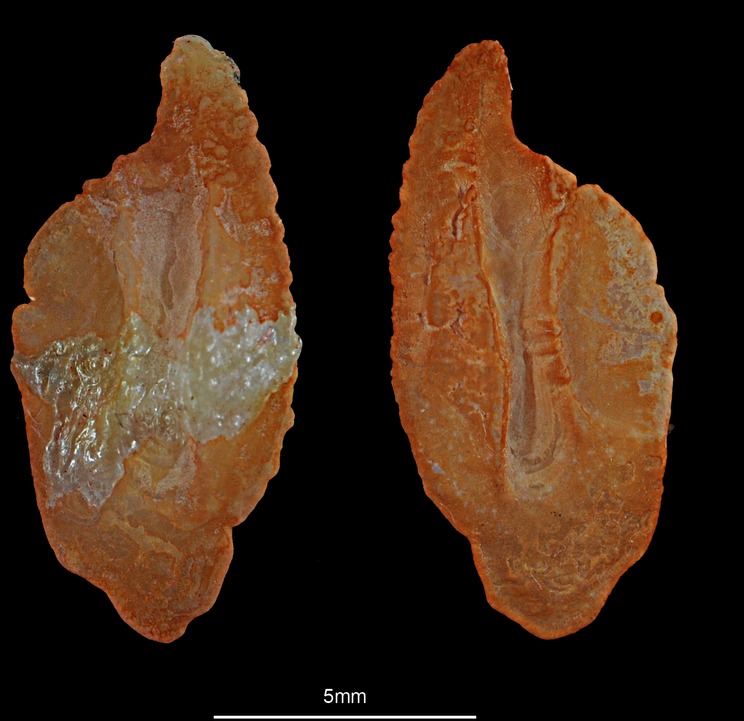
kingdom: Animalia
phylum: Chordata
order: Scorpaeniformes
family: Sebastidae
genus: Helicolenus
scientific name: Helicolenus dactylopterus
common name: Blackbelly rosefish
